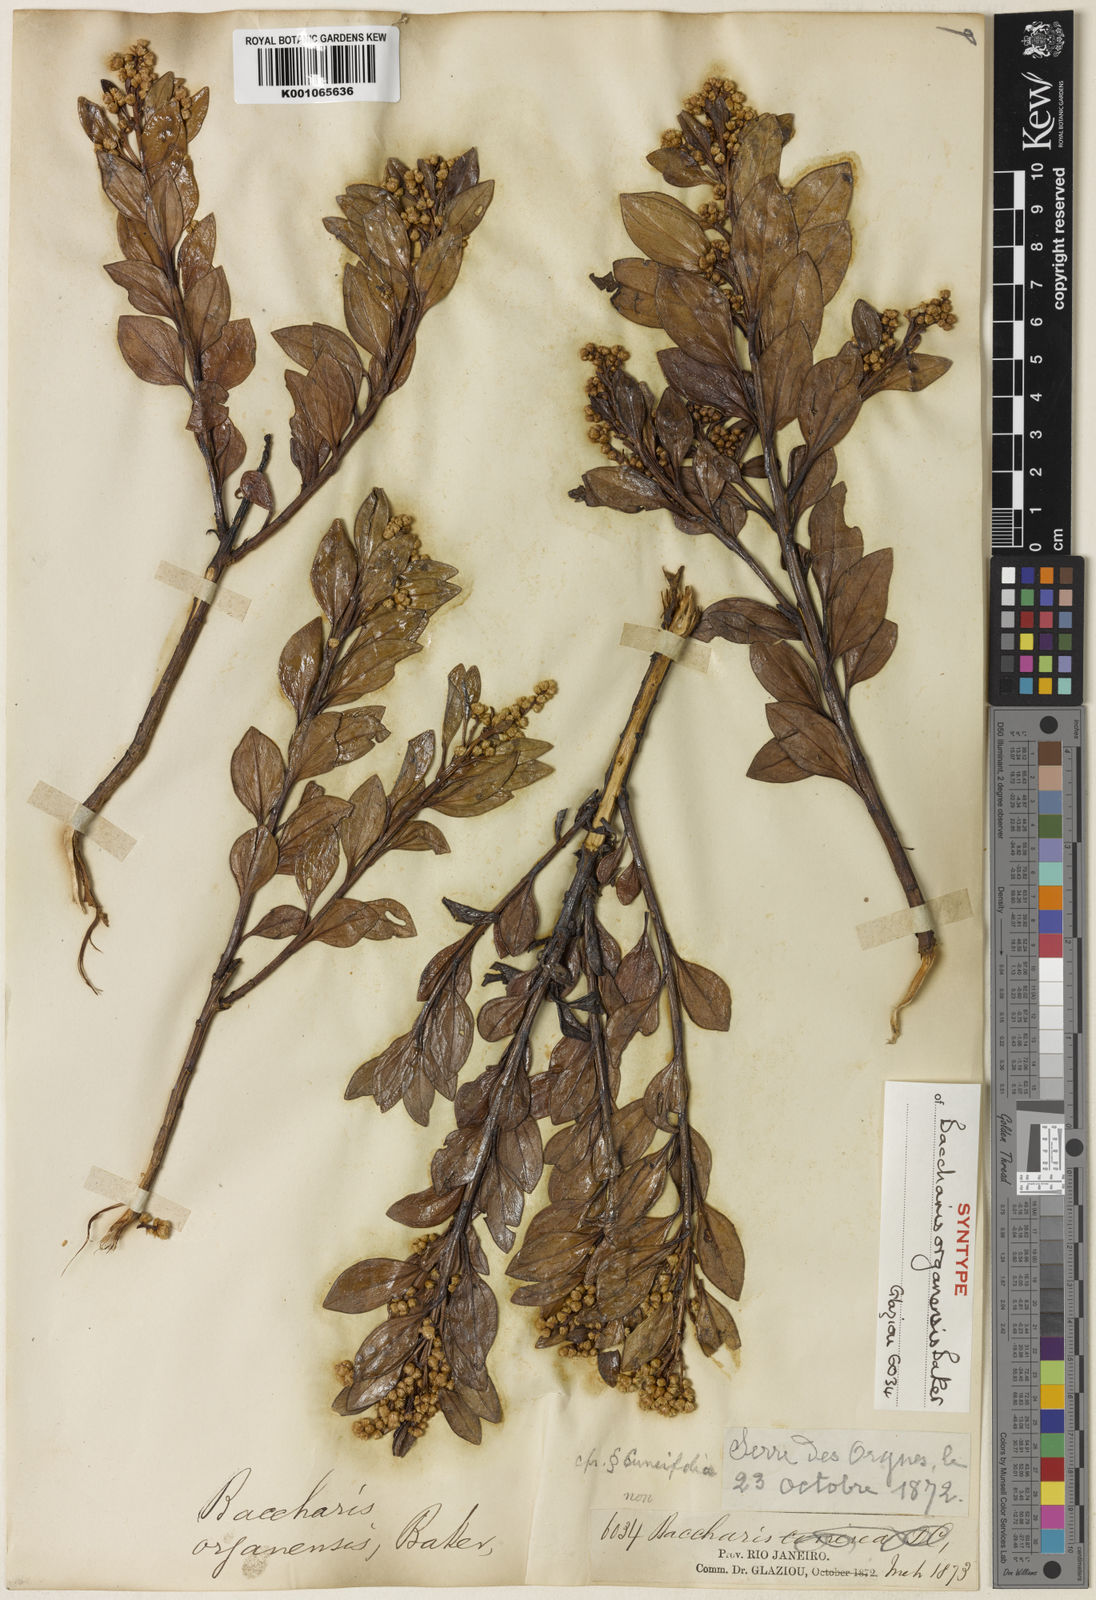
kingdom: Plantae
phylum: Tracheophyta
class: Magnoliopsida
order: Asterales
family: Asteraceae
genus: Baccharis
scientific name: Baccharis organensis
